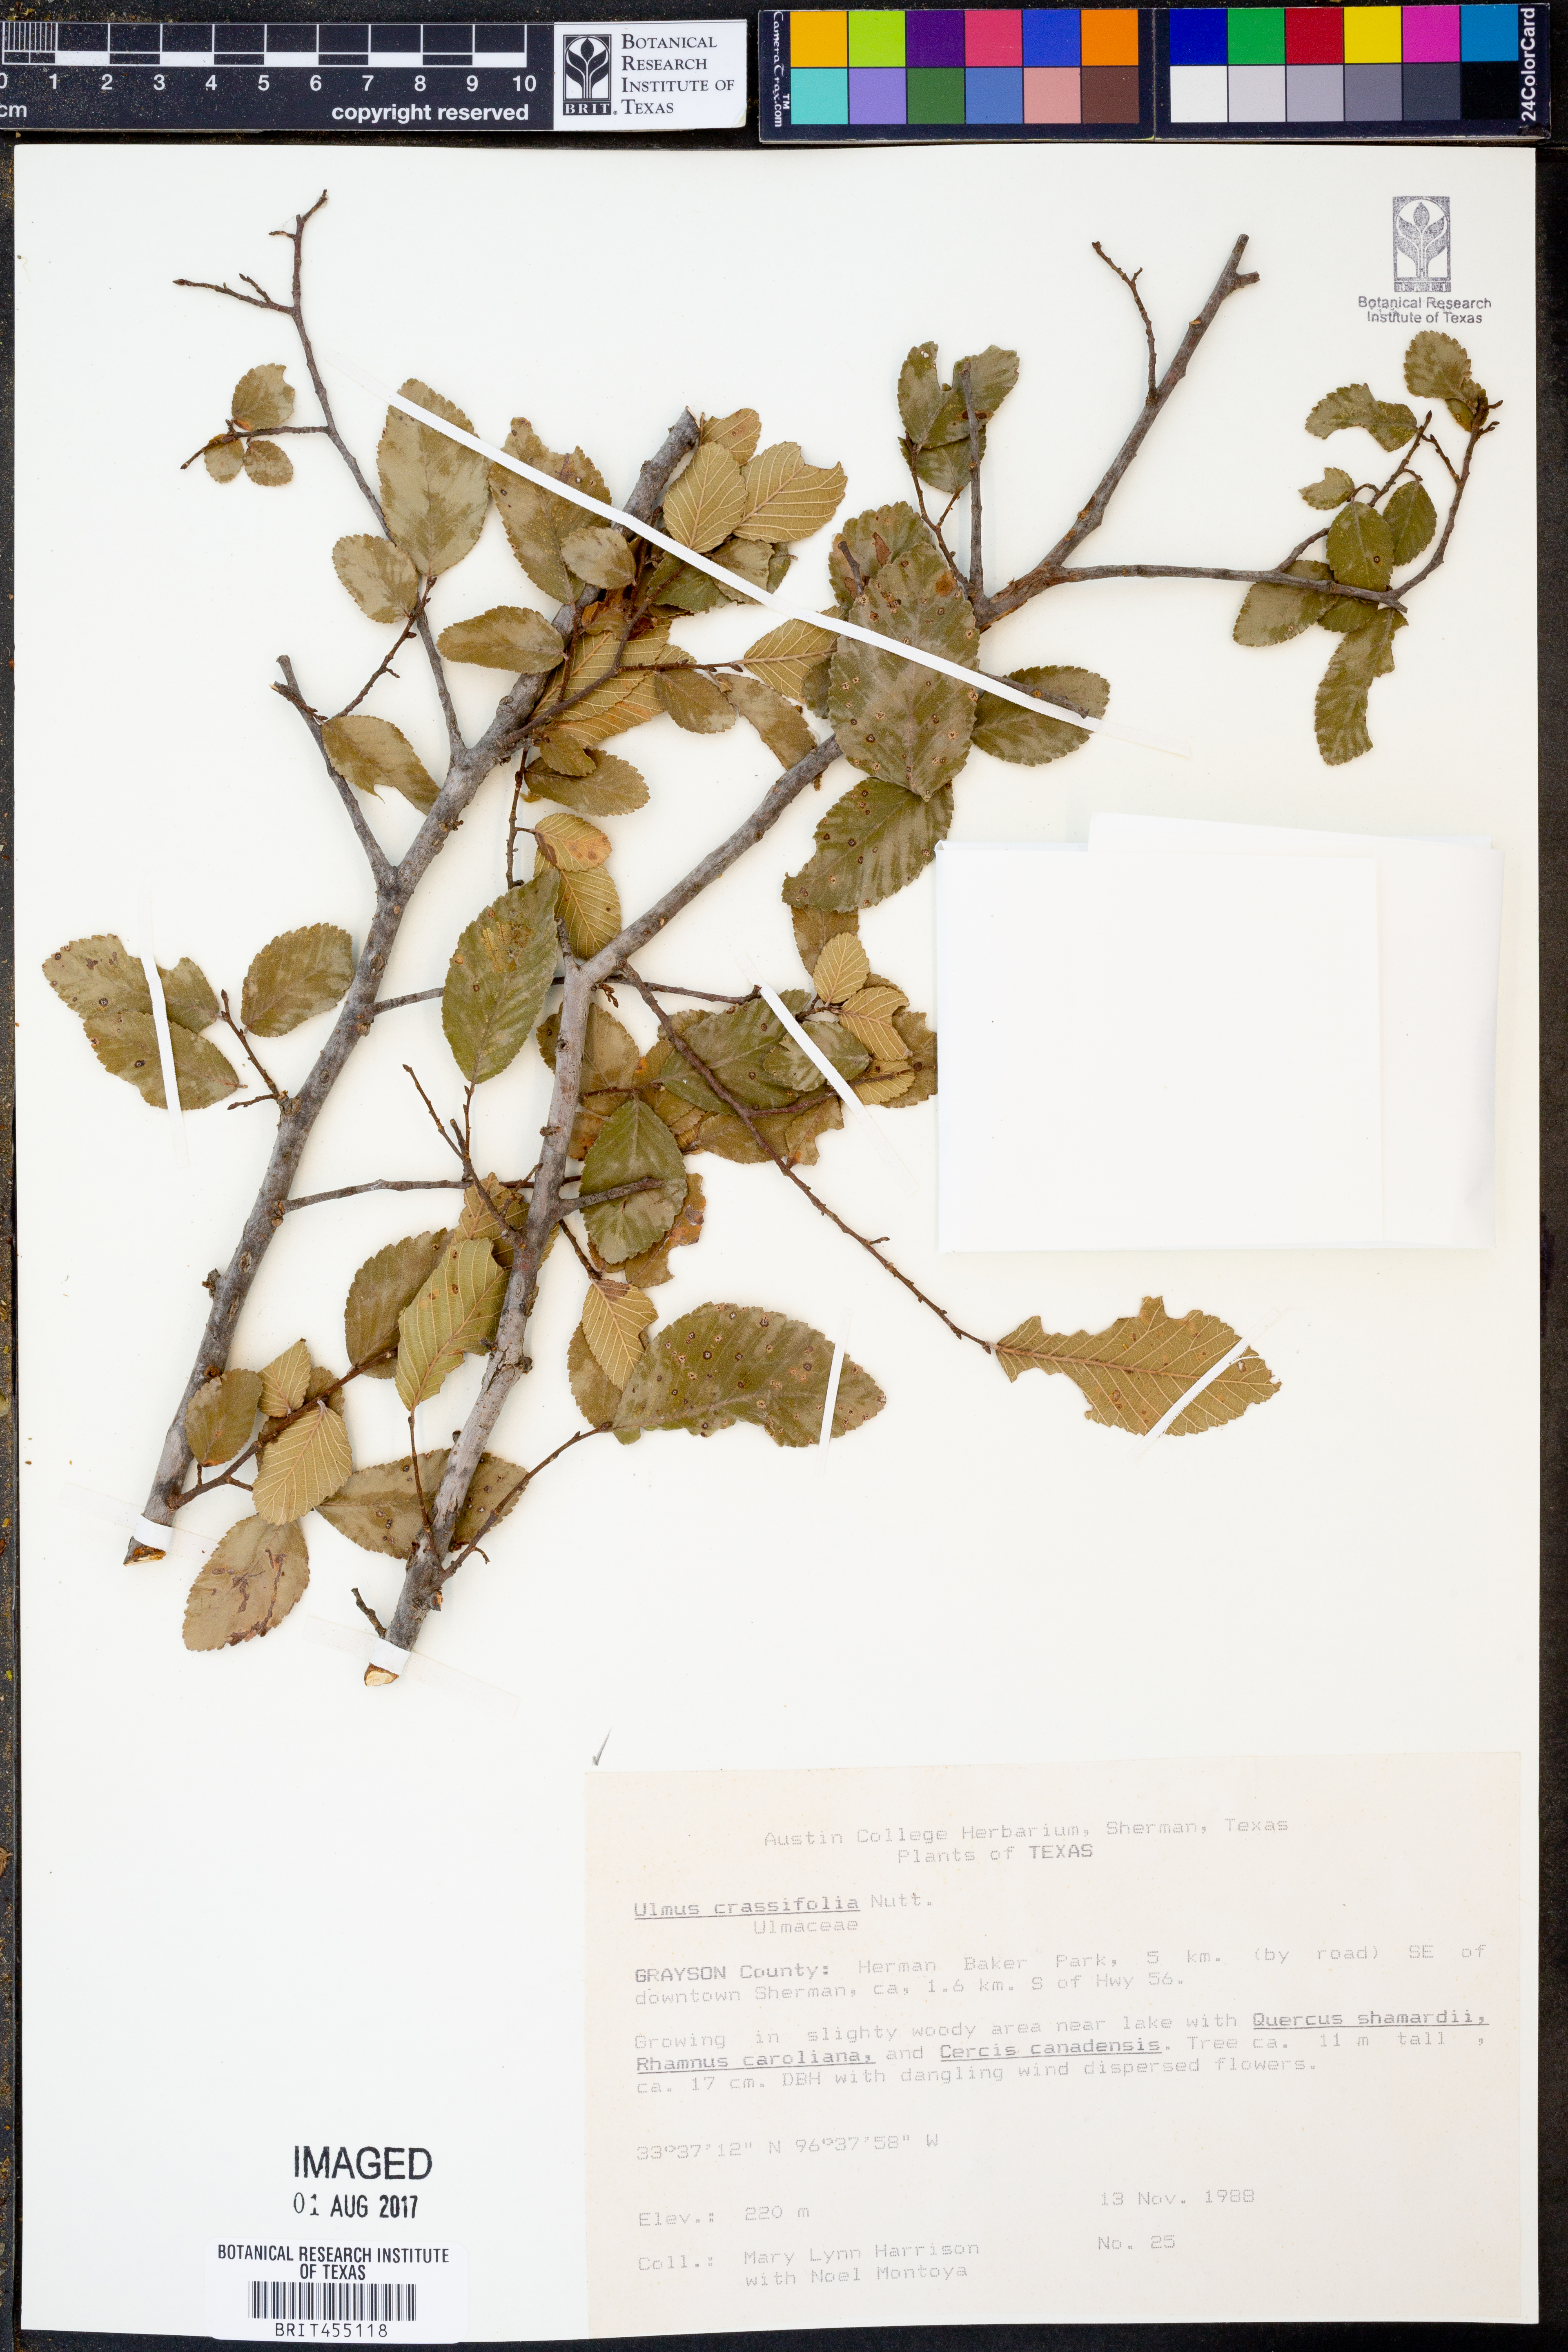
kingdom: Plantae
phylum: Tracheophyta
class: Magnoliopsida
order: Rosales
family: Ulmaceae
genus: Ulmus
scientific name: Ulmus crassifolia
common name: Basket elm
